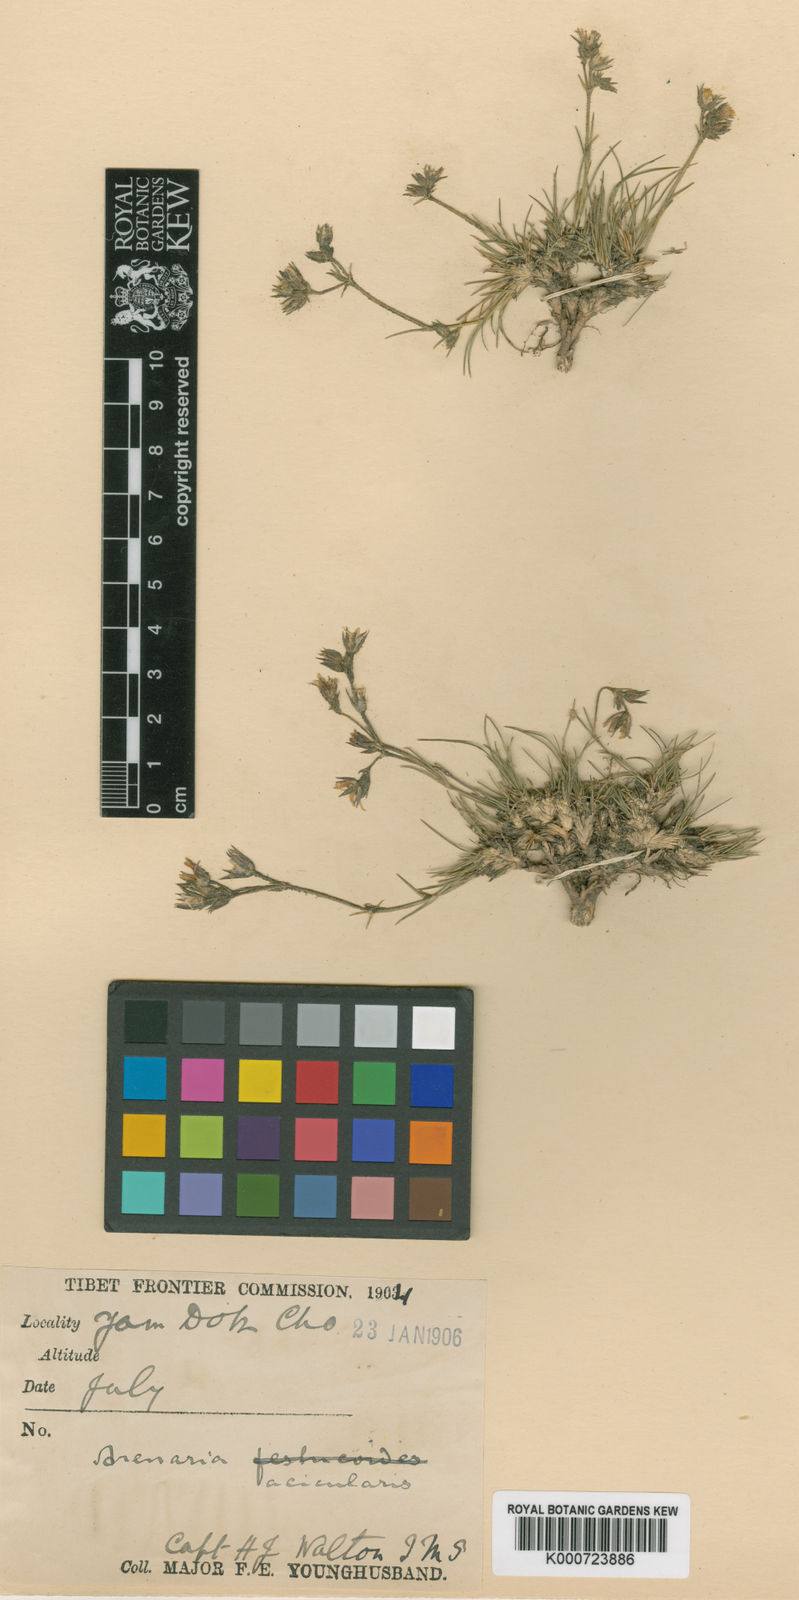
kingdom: Plantae
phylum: Tracheophyta
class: Magnoliopsida
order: Caryophyllales
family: Caryophyllaceae
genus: Eremogone
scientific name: Eremogone acicularis
